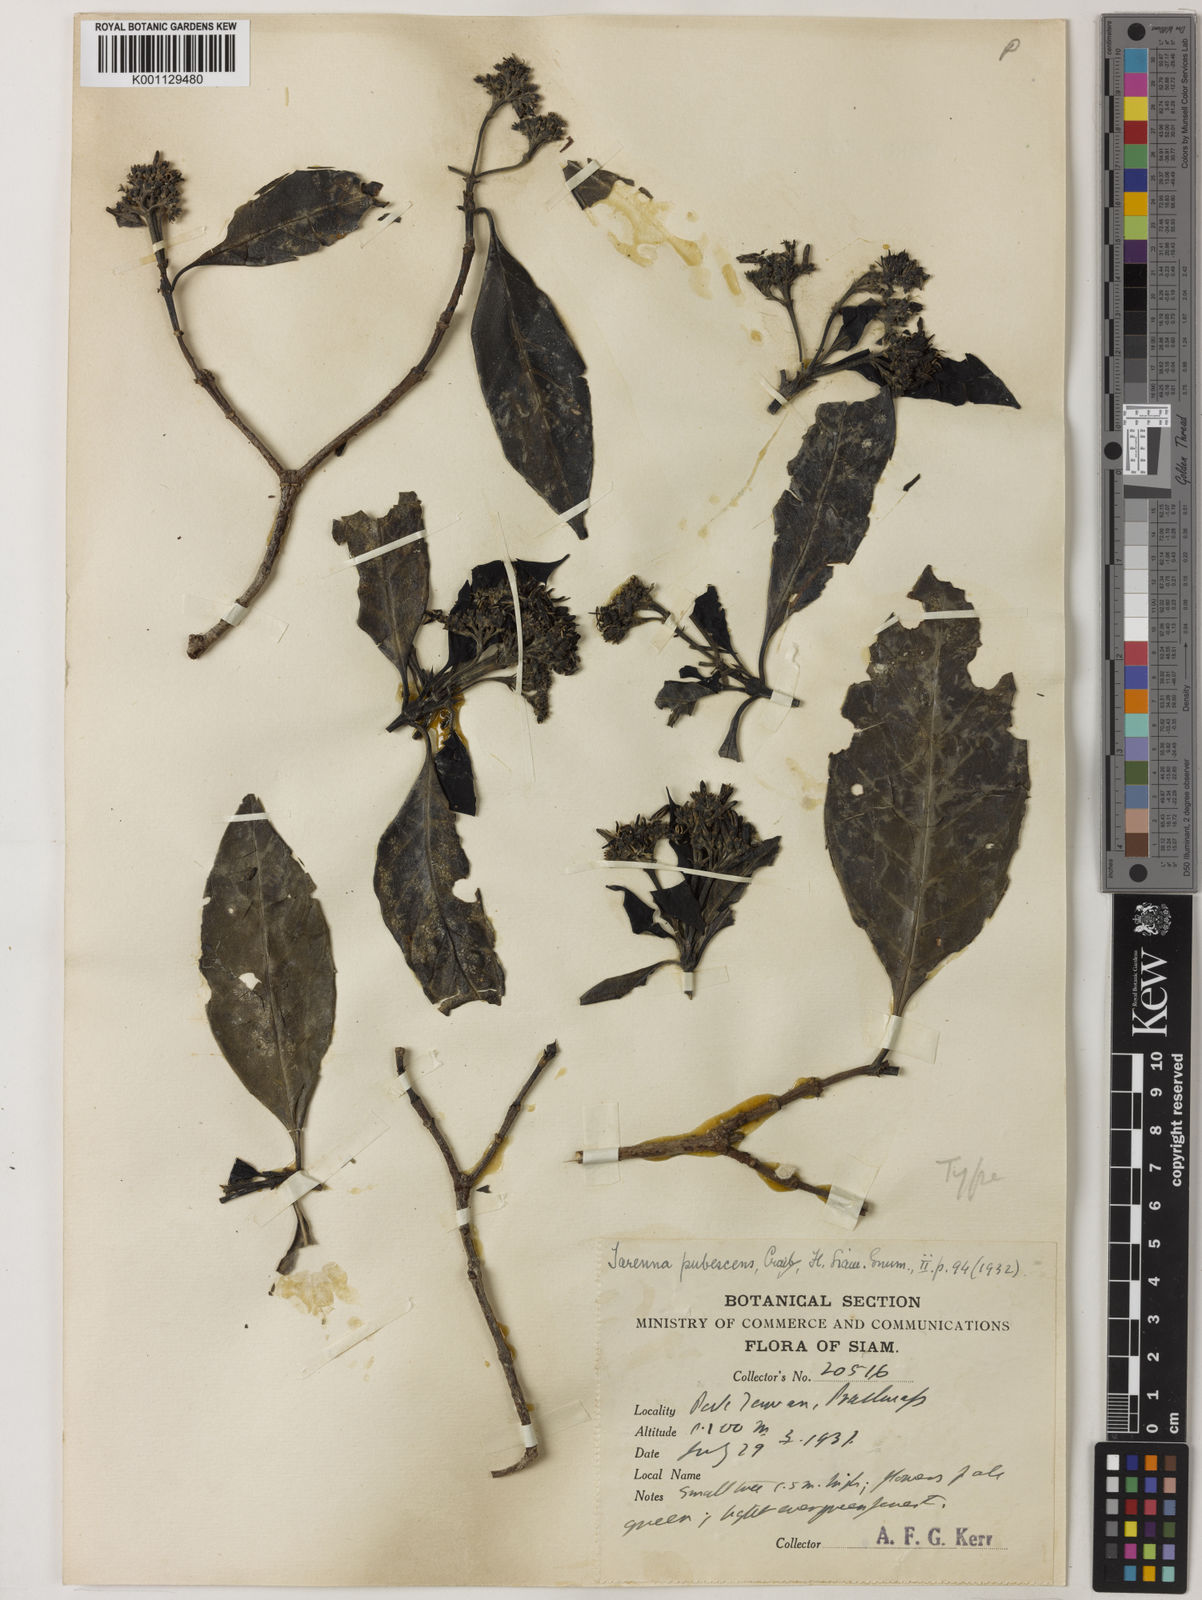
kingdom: Plantae
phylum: Tracheophyta
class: Magnoliopsida
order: Gentianales
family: Rubiaceae
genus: Tarenna
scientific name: Tarenna cinerea
